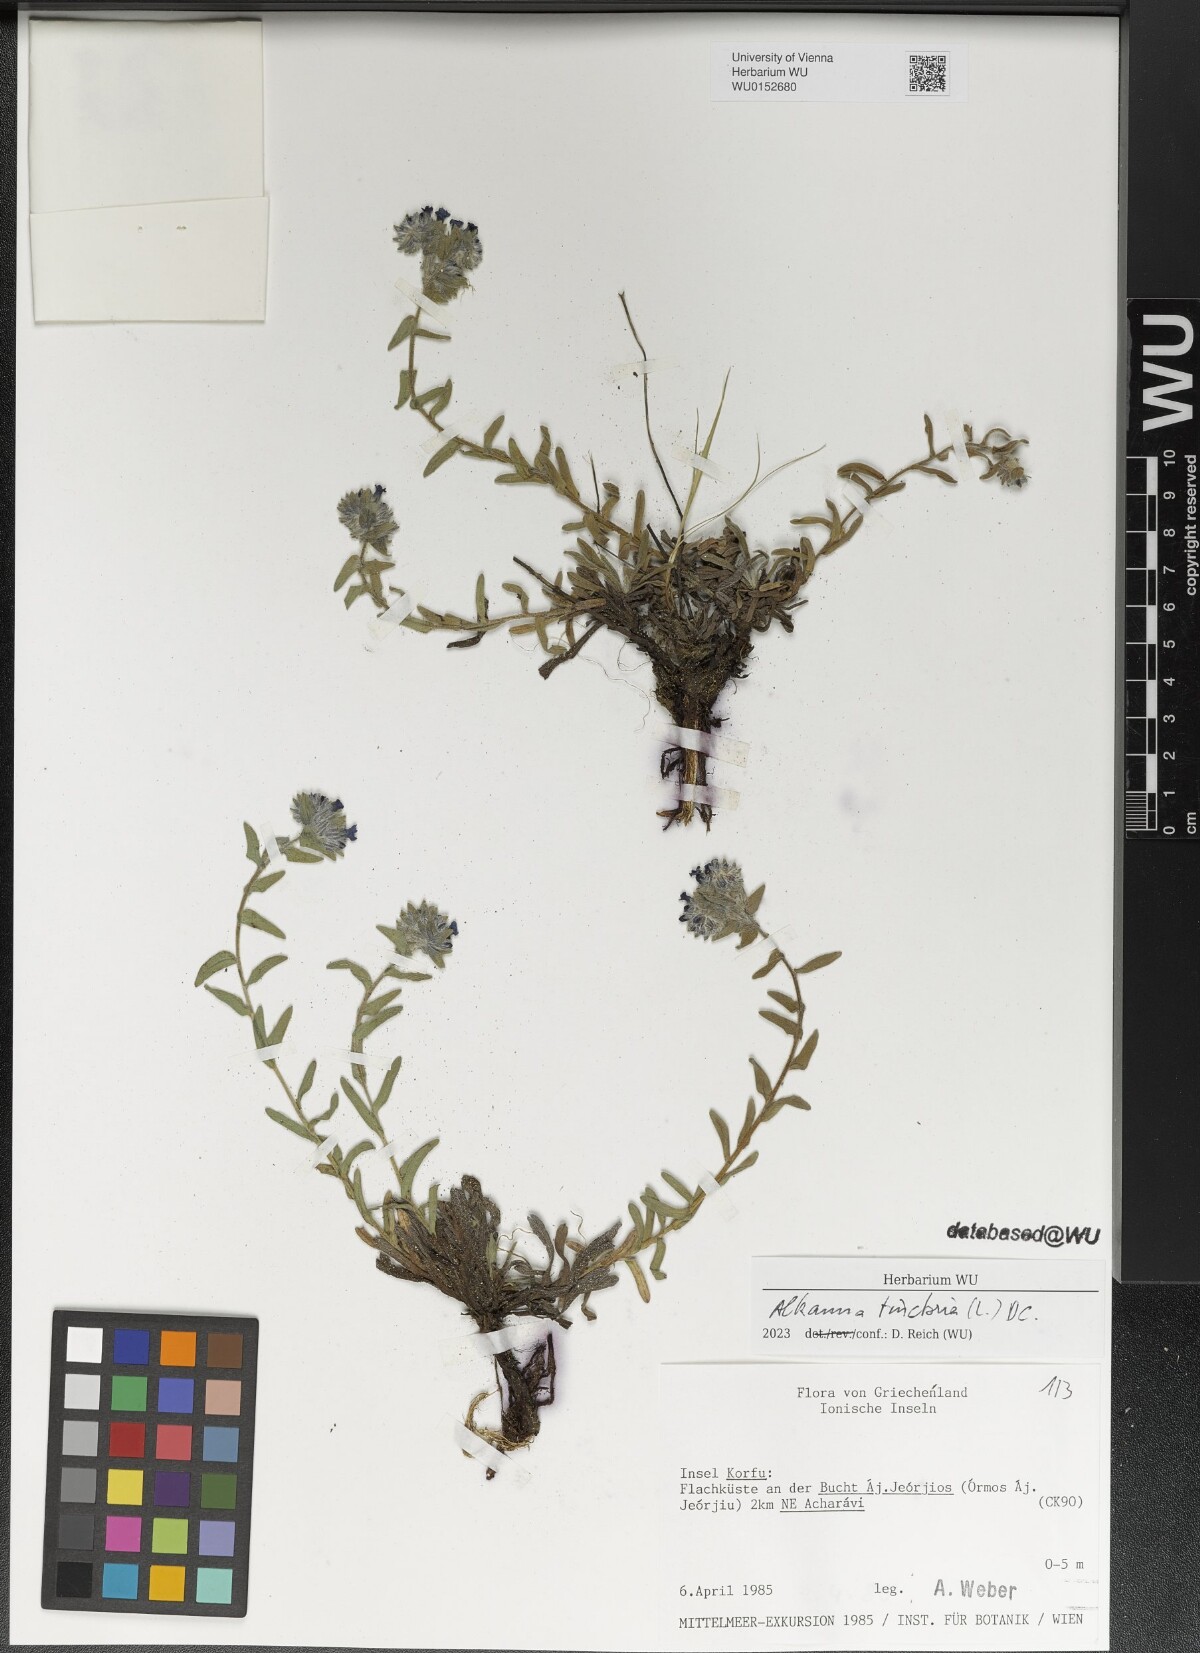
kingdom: Plantae
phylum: Tracheophyta
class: Magnoliopsida
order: Boraginales
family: Boraginaceae
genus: Alkanna
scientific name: Alkanna tinctoria
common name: Dyer's-alkanet
